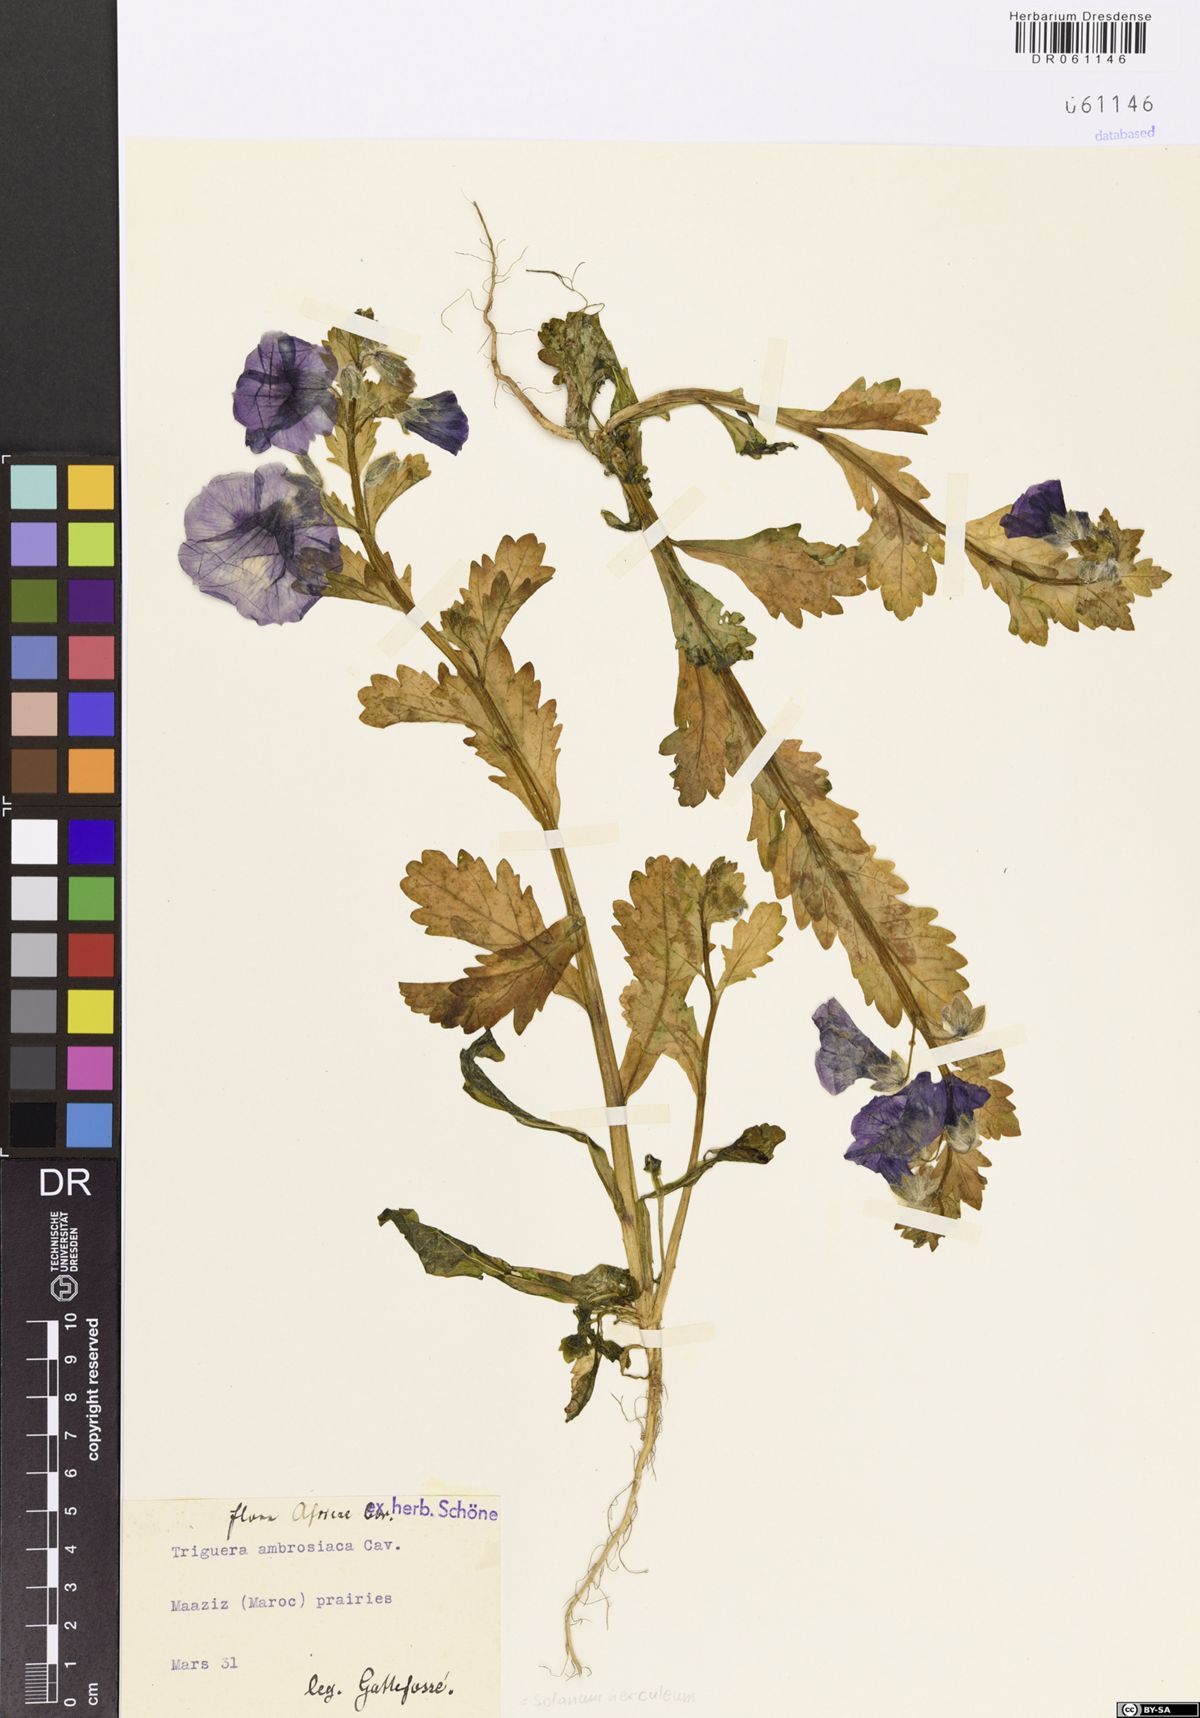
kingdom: Plantae
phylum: Tracheophyta
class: Magnoliopsida
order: Solanales
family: Solanaceae
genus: Solanum
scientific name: Solanum herculeum
